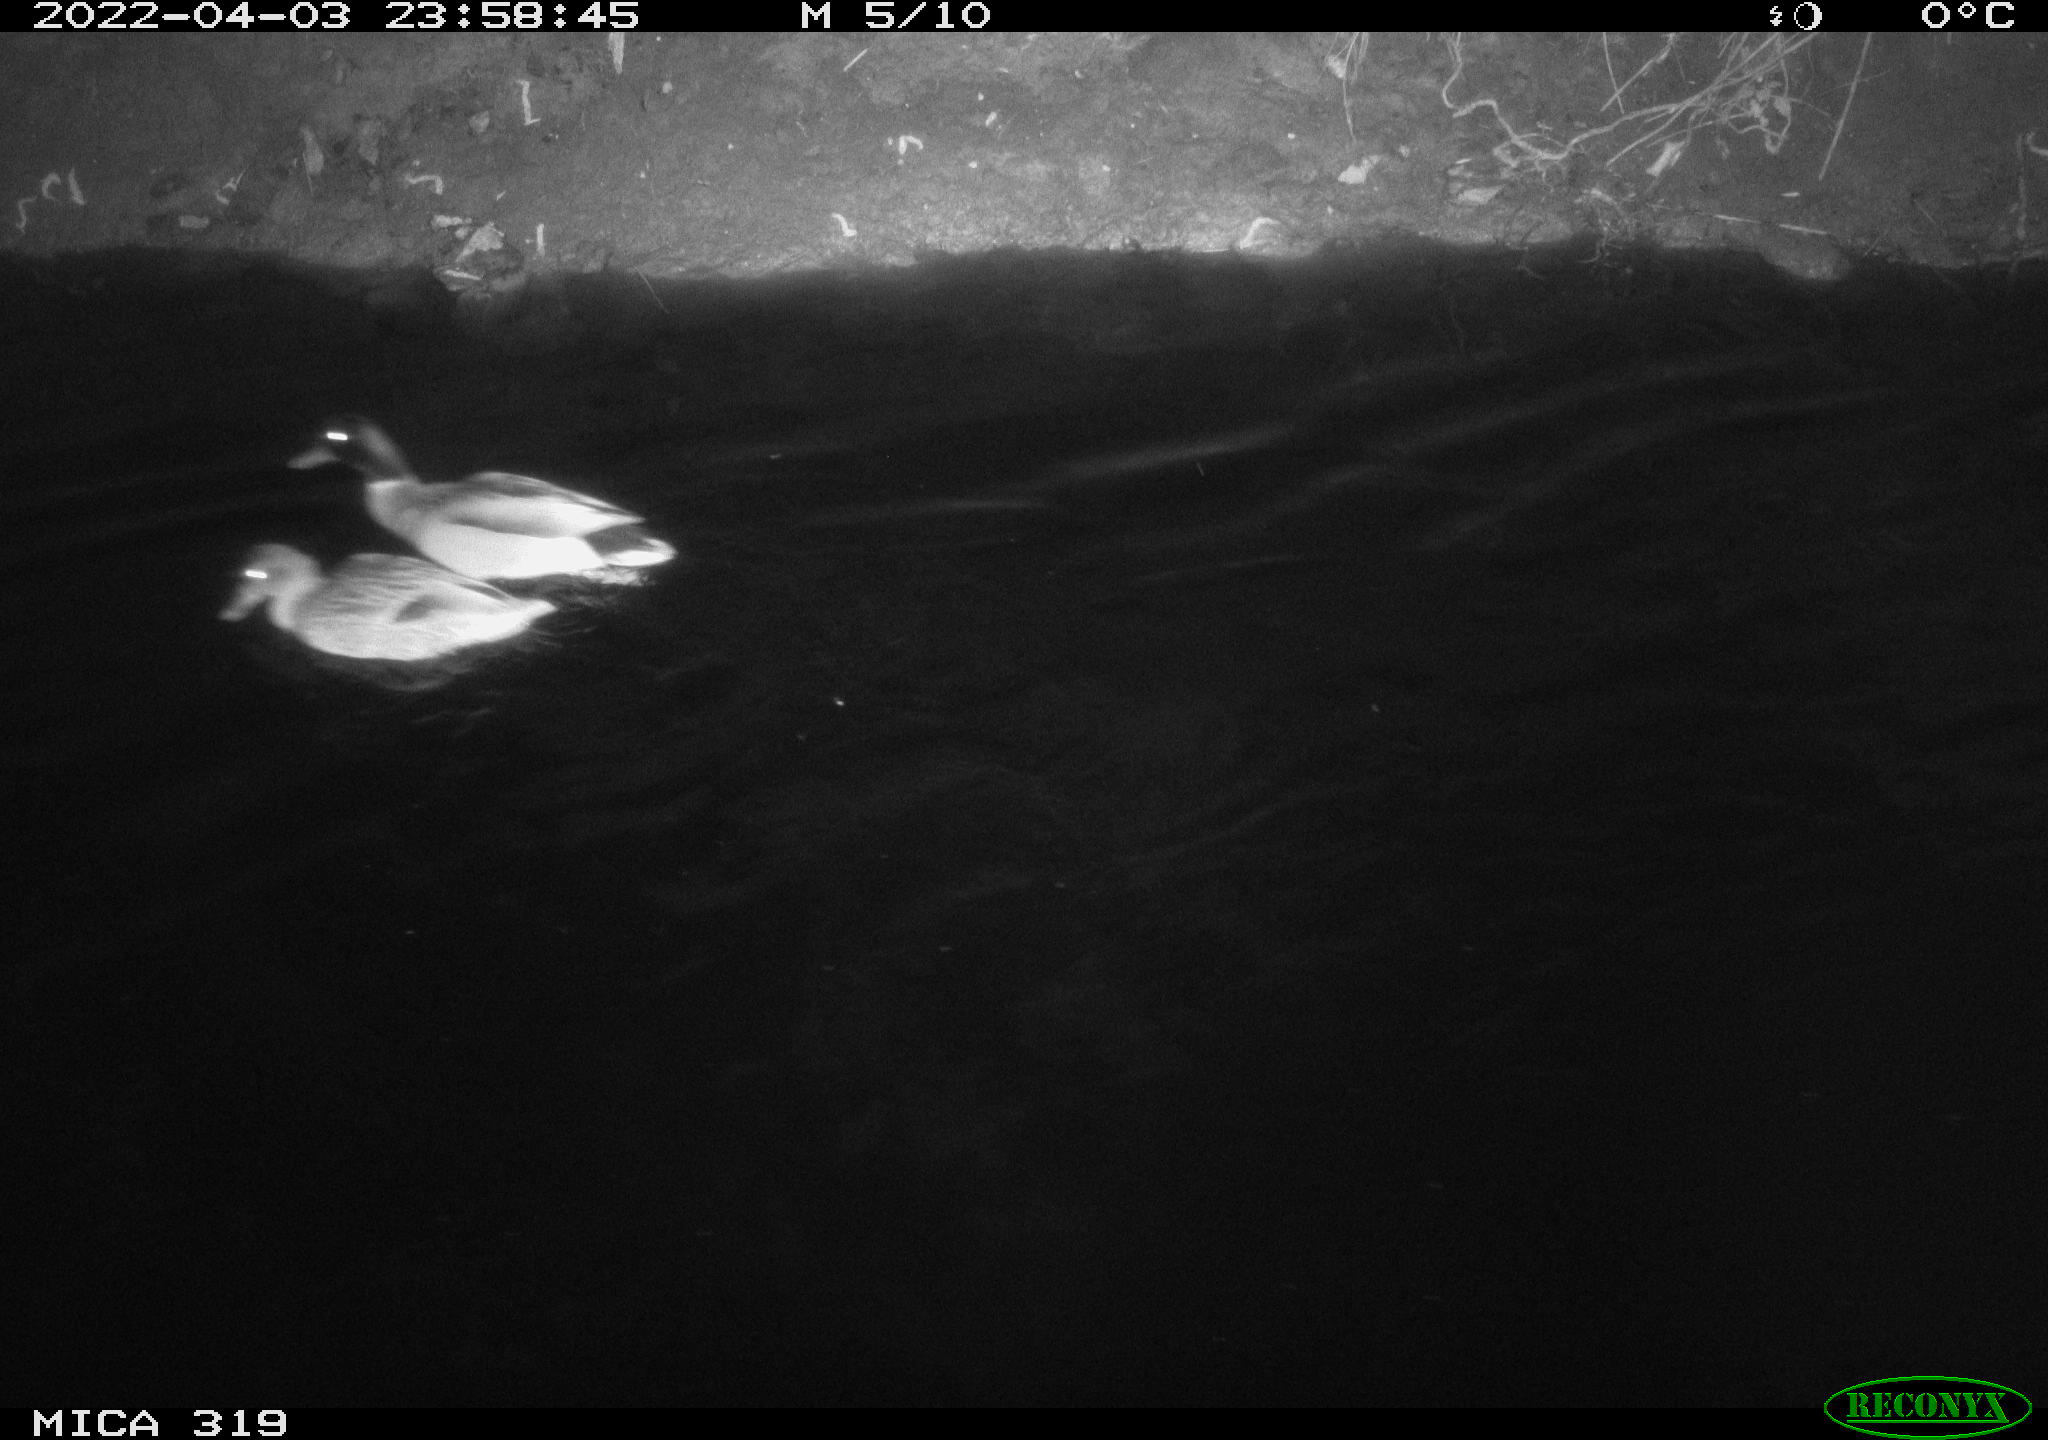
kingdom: Animalia
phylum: Chordata
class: Aves
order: Anseriformes
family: Anatidae
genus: Anas
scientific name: Anas platyrhynchos
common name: Mallard
